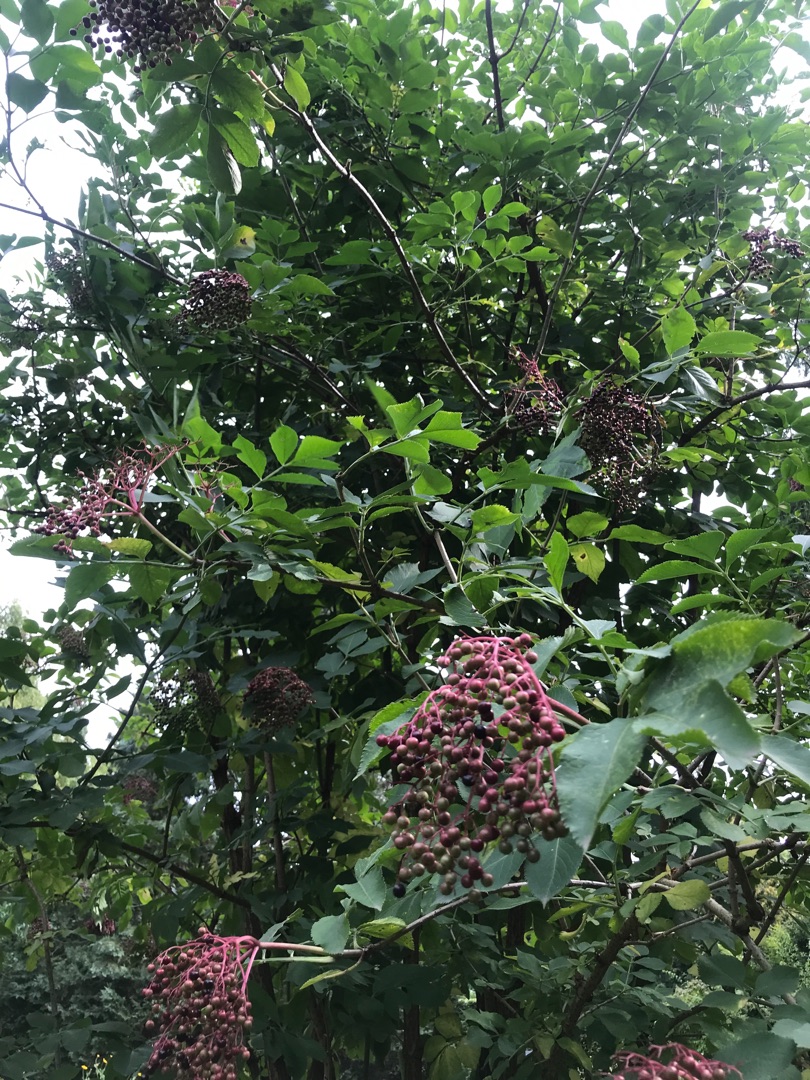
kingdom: Plantae
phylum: Tracheophyta
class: Magnoliopsida
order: Dipsacales
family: Viburnaceae
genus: Sambucus
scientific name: Sambucus nigra
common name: Almindelig hyld
